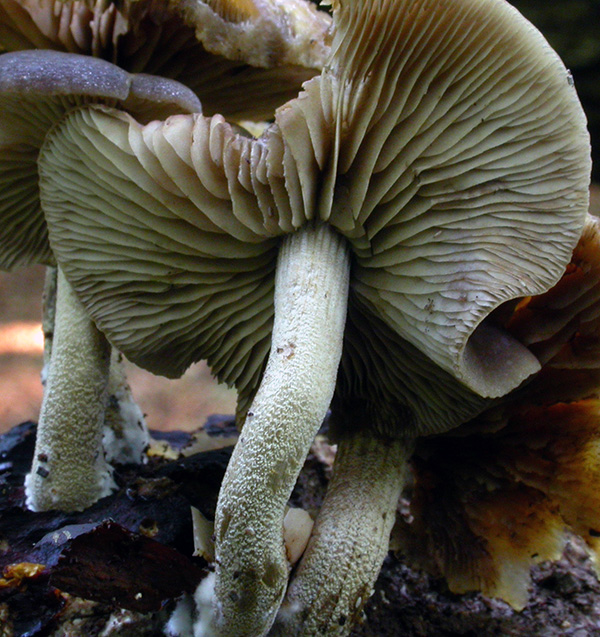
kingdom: Fungi
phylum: Basidiomycota
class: Agaricomycetes
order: Agaricales
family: Strophariaceae
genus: Agrocybe
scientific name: Agrocybe firma
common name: tobaksbrun agerhat
